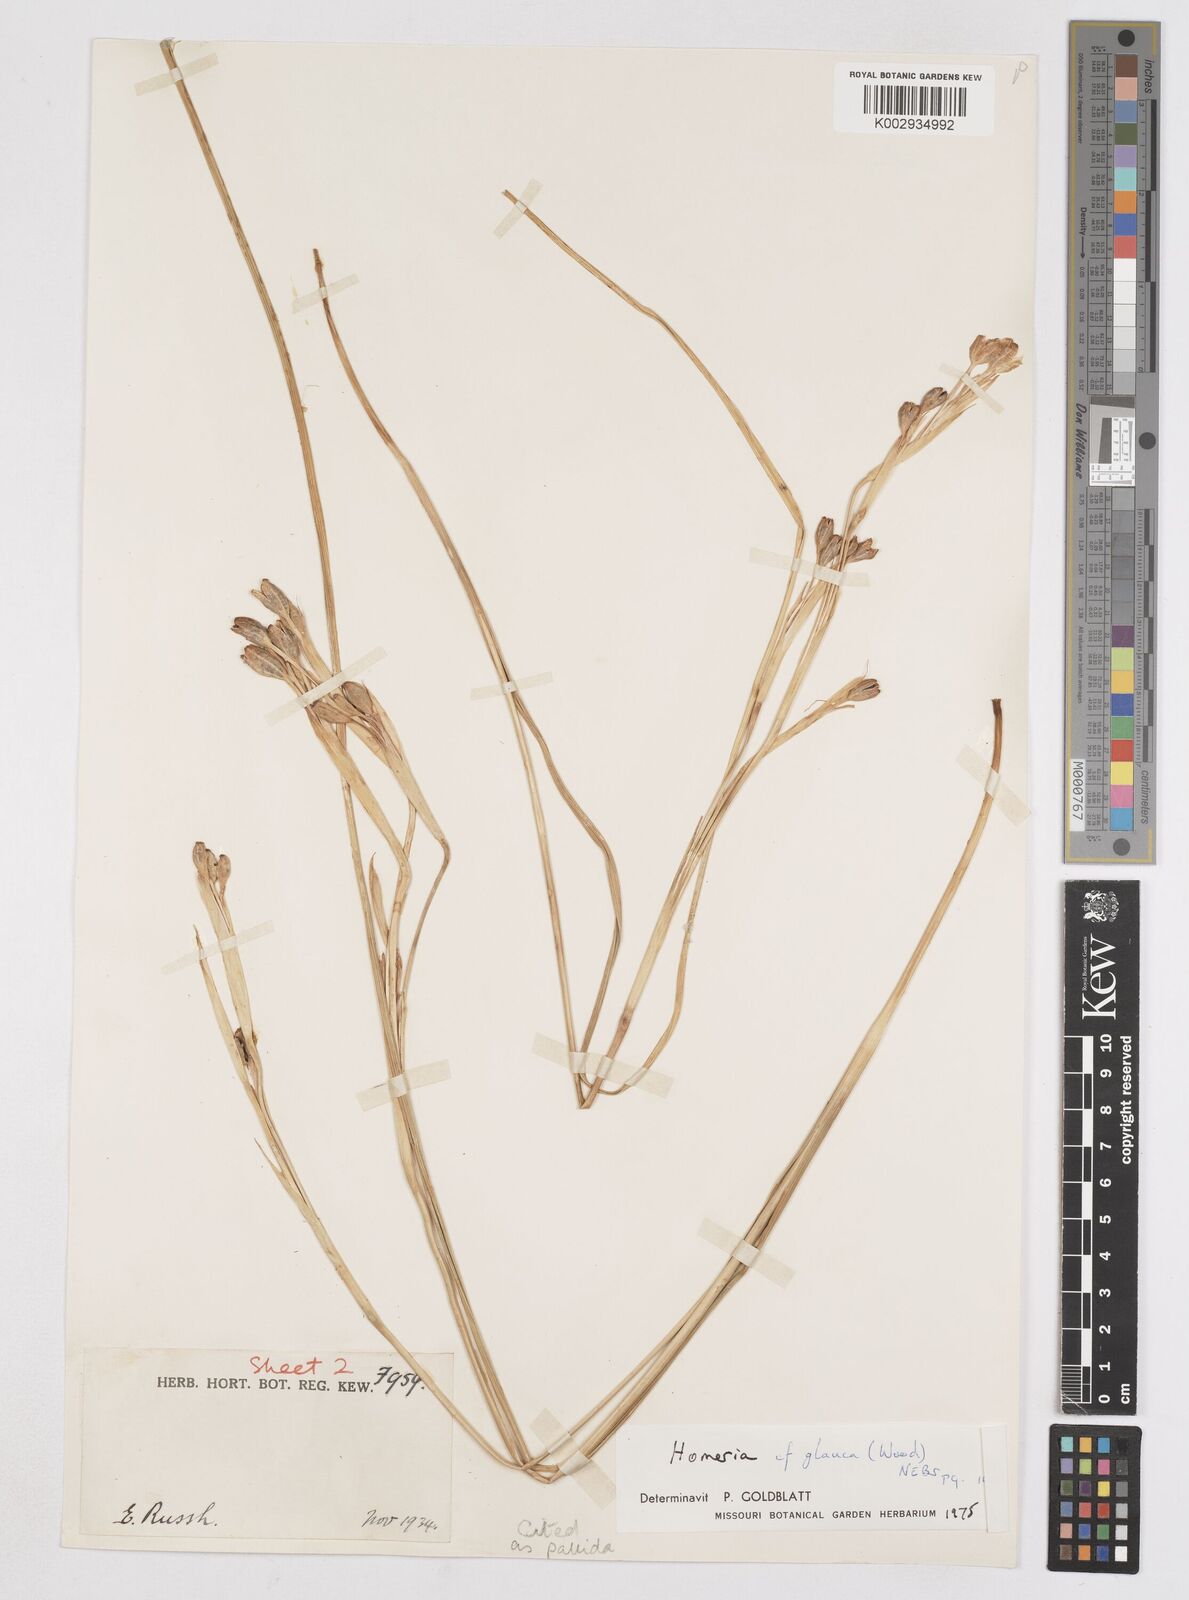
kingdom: Plantae
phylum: Tracheophyta
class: Liliopsida
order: Asparagales
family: Iridaceae
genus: Moraea
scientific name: Moraea pallida
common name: Yellow tulp
